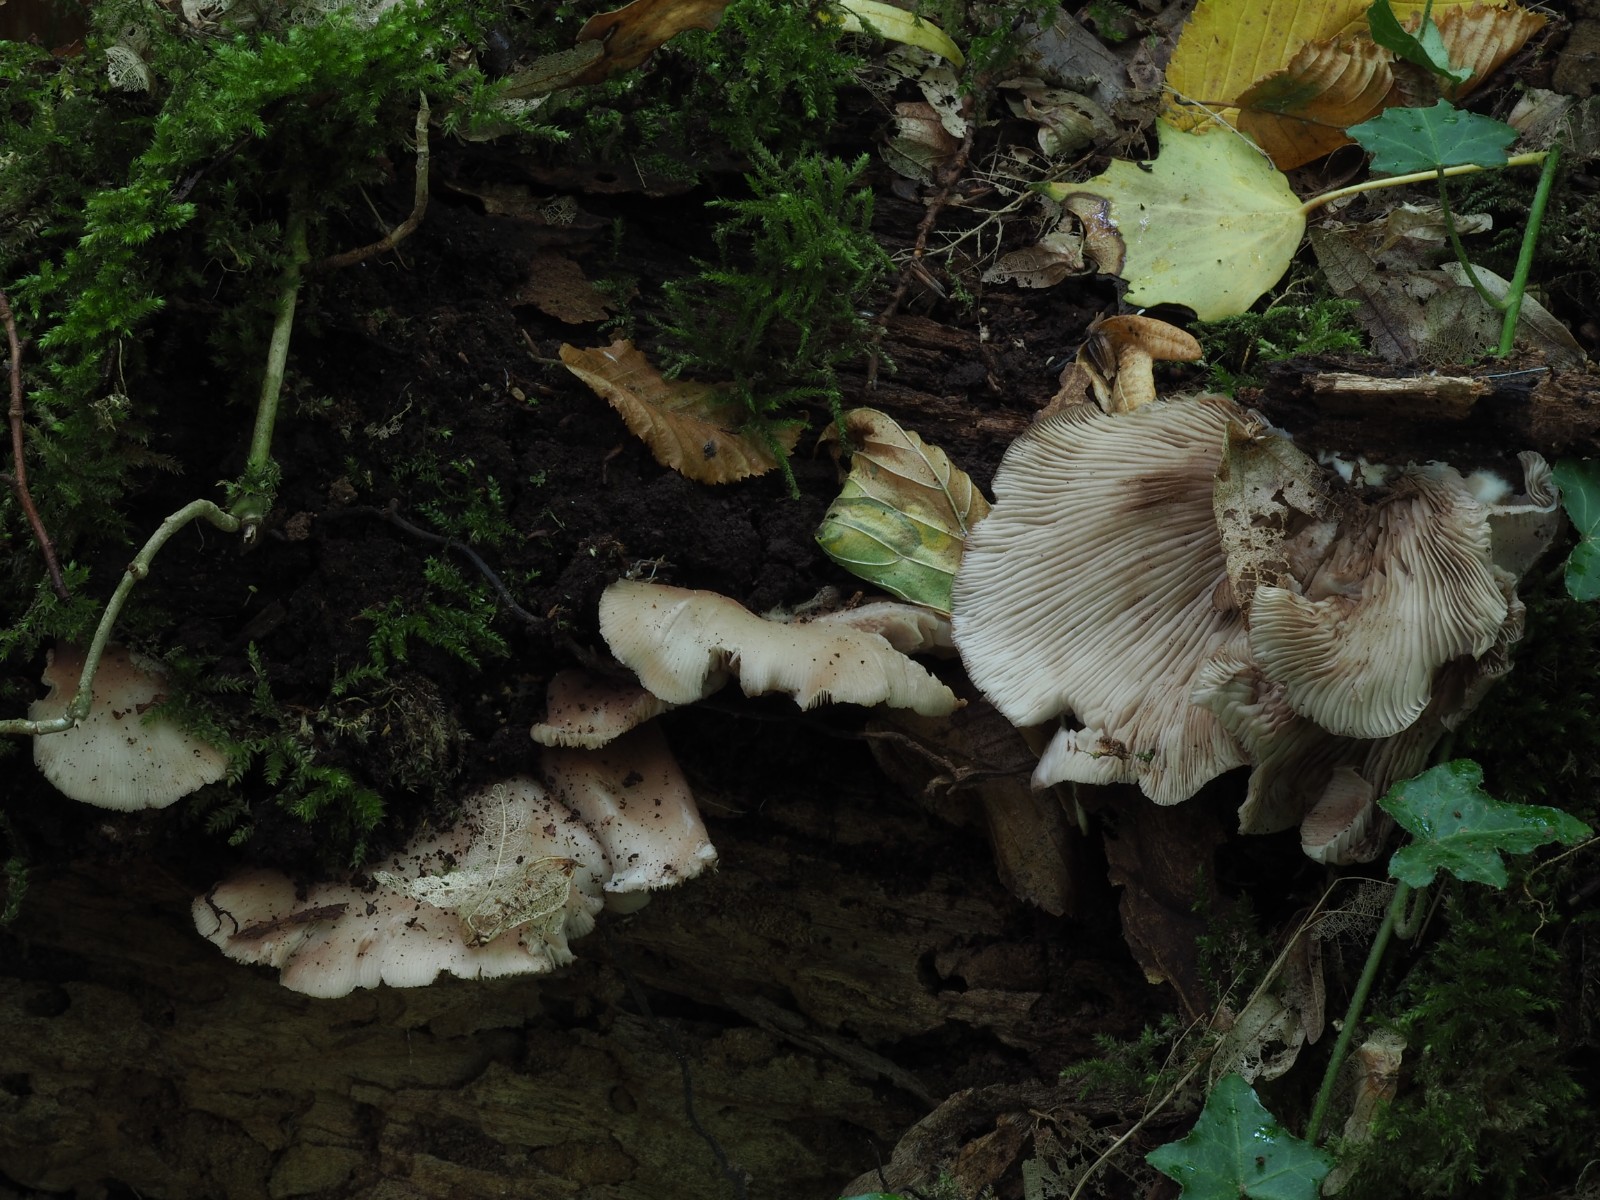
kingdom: Fungi
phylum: Basidiomycota
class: Agaricomycetes
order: Agaricales
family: Crepidotaceae
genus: Crepidotus
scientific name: Crepidotus applanatus
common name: tvefarvet muslingesvamp
